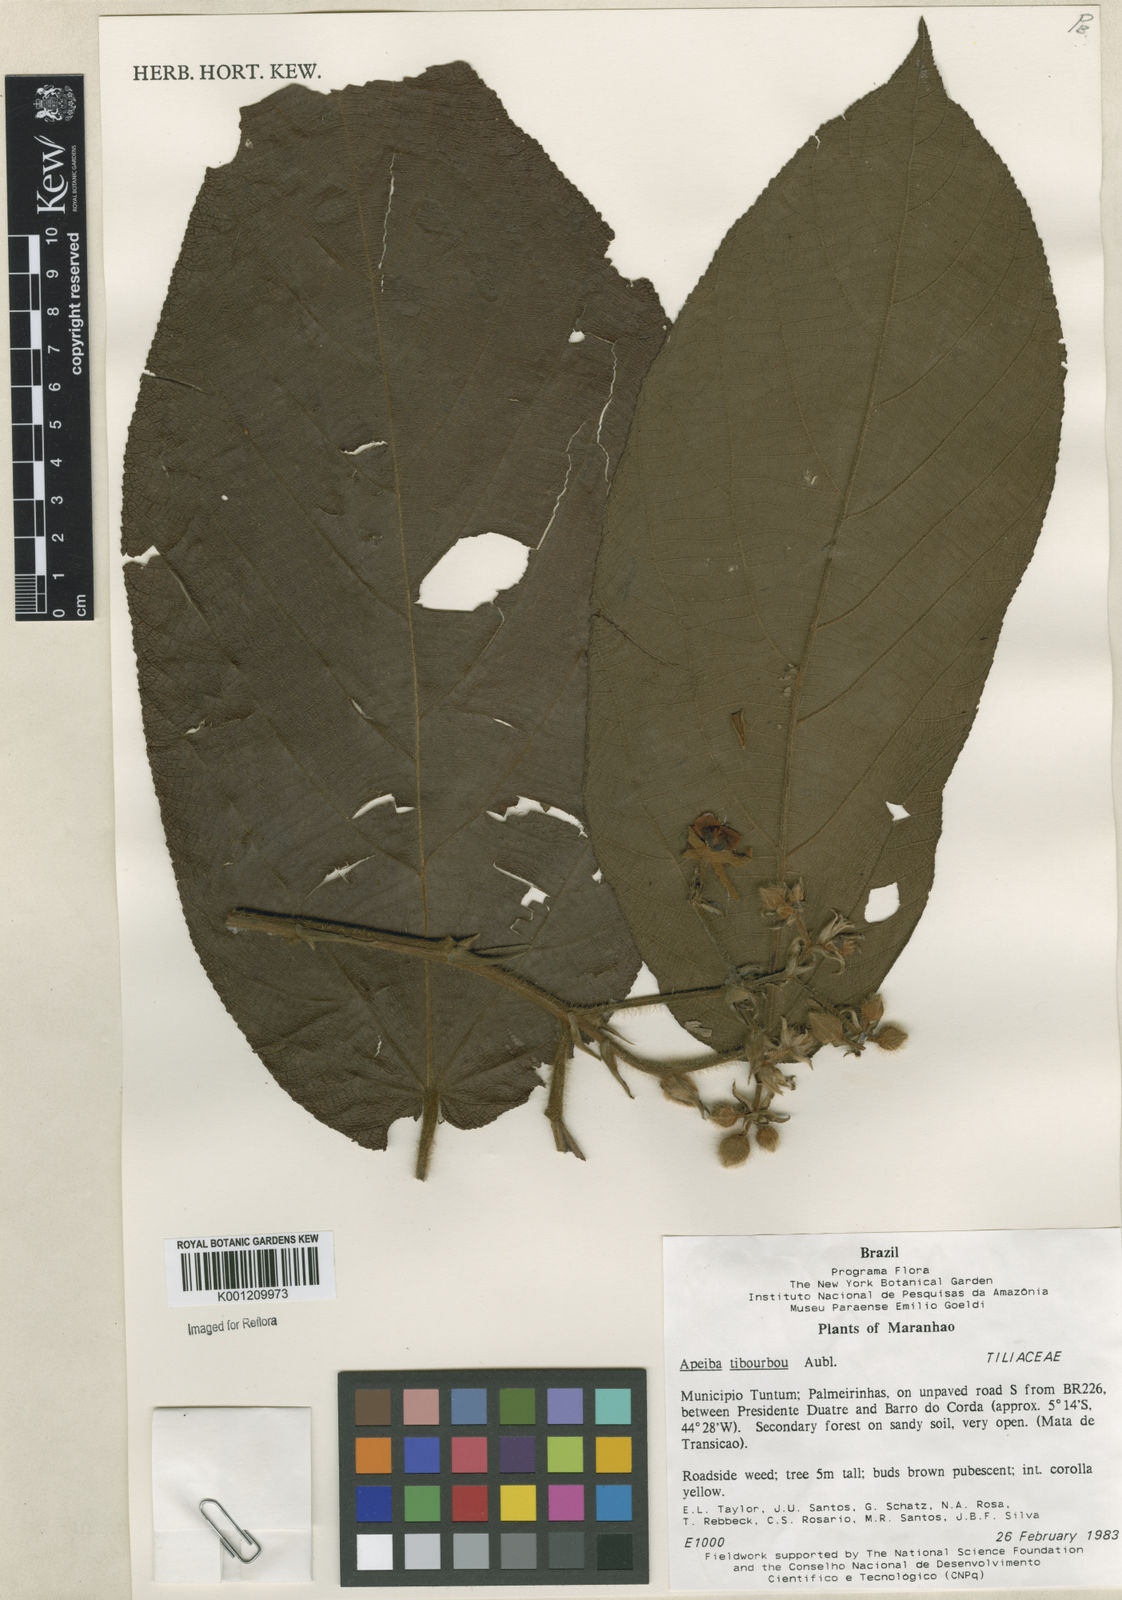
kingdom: Plantae
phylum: Tracheophyta
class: Magnoliopsida
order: Malvales
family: Malvaceae
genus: Apeiba
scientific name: Apeiba tibourbou
